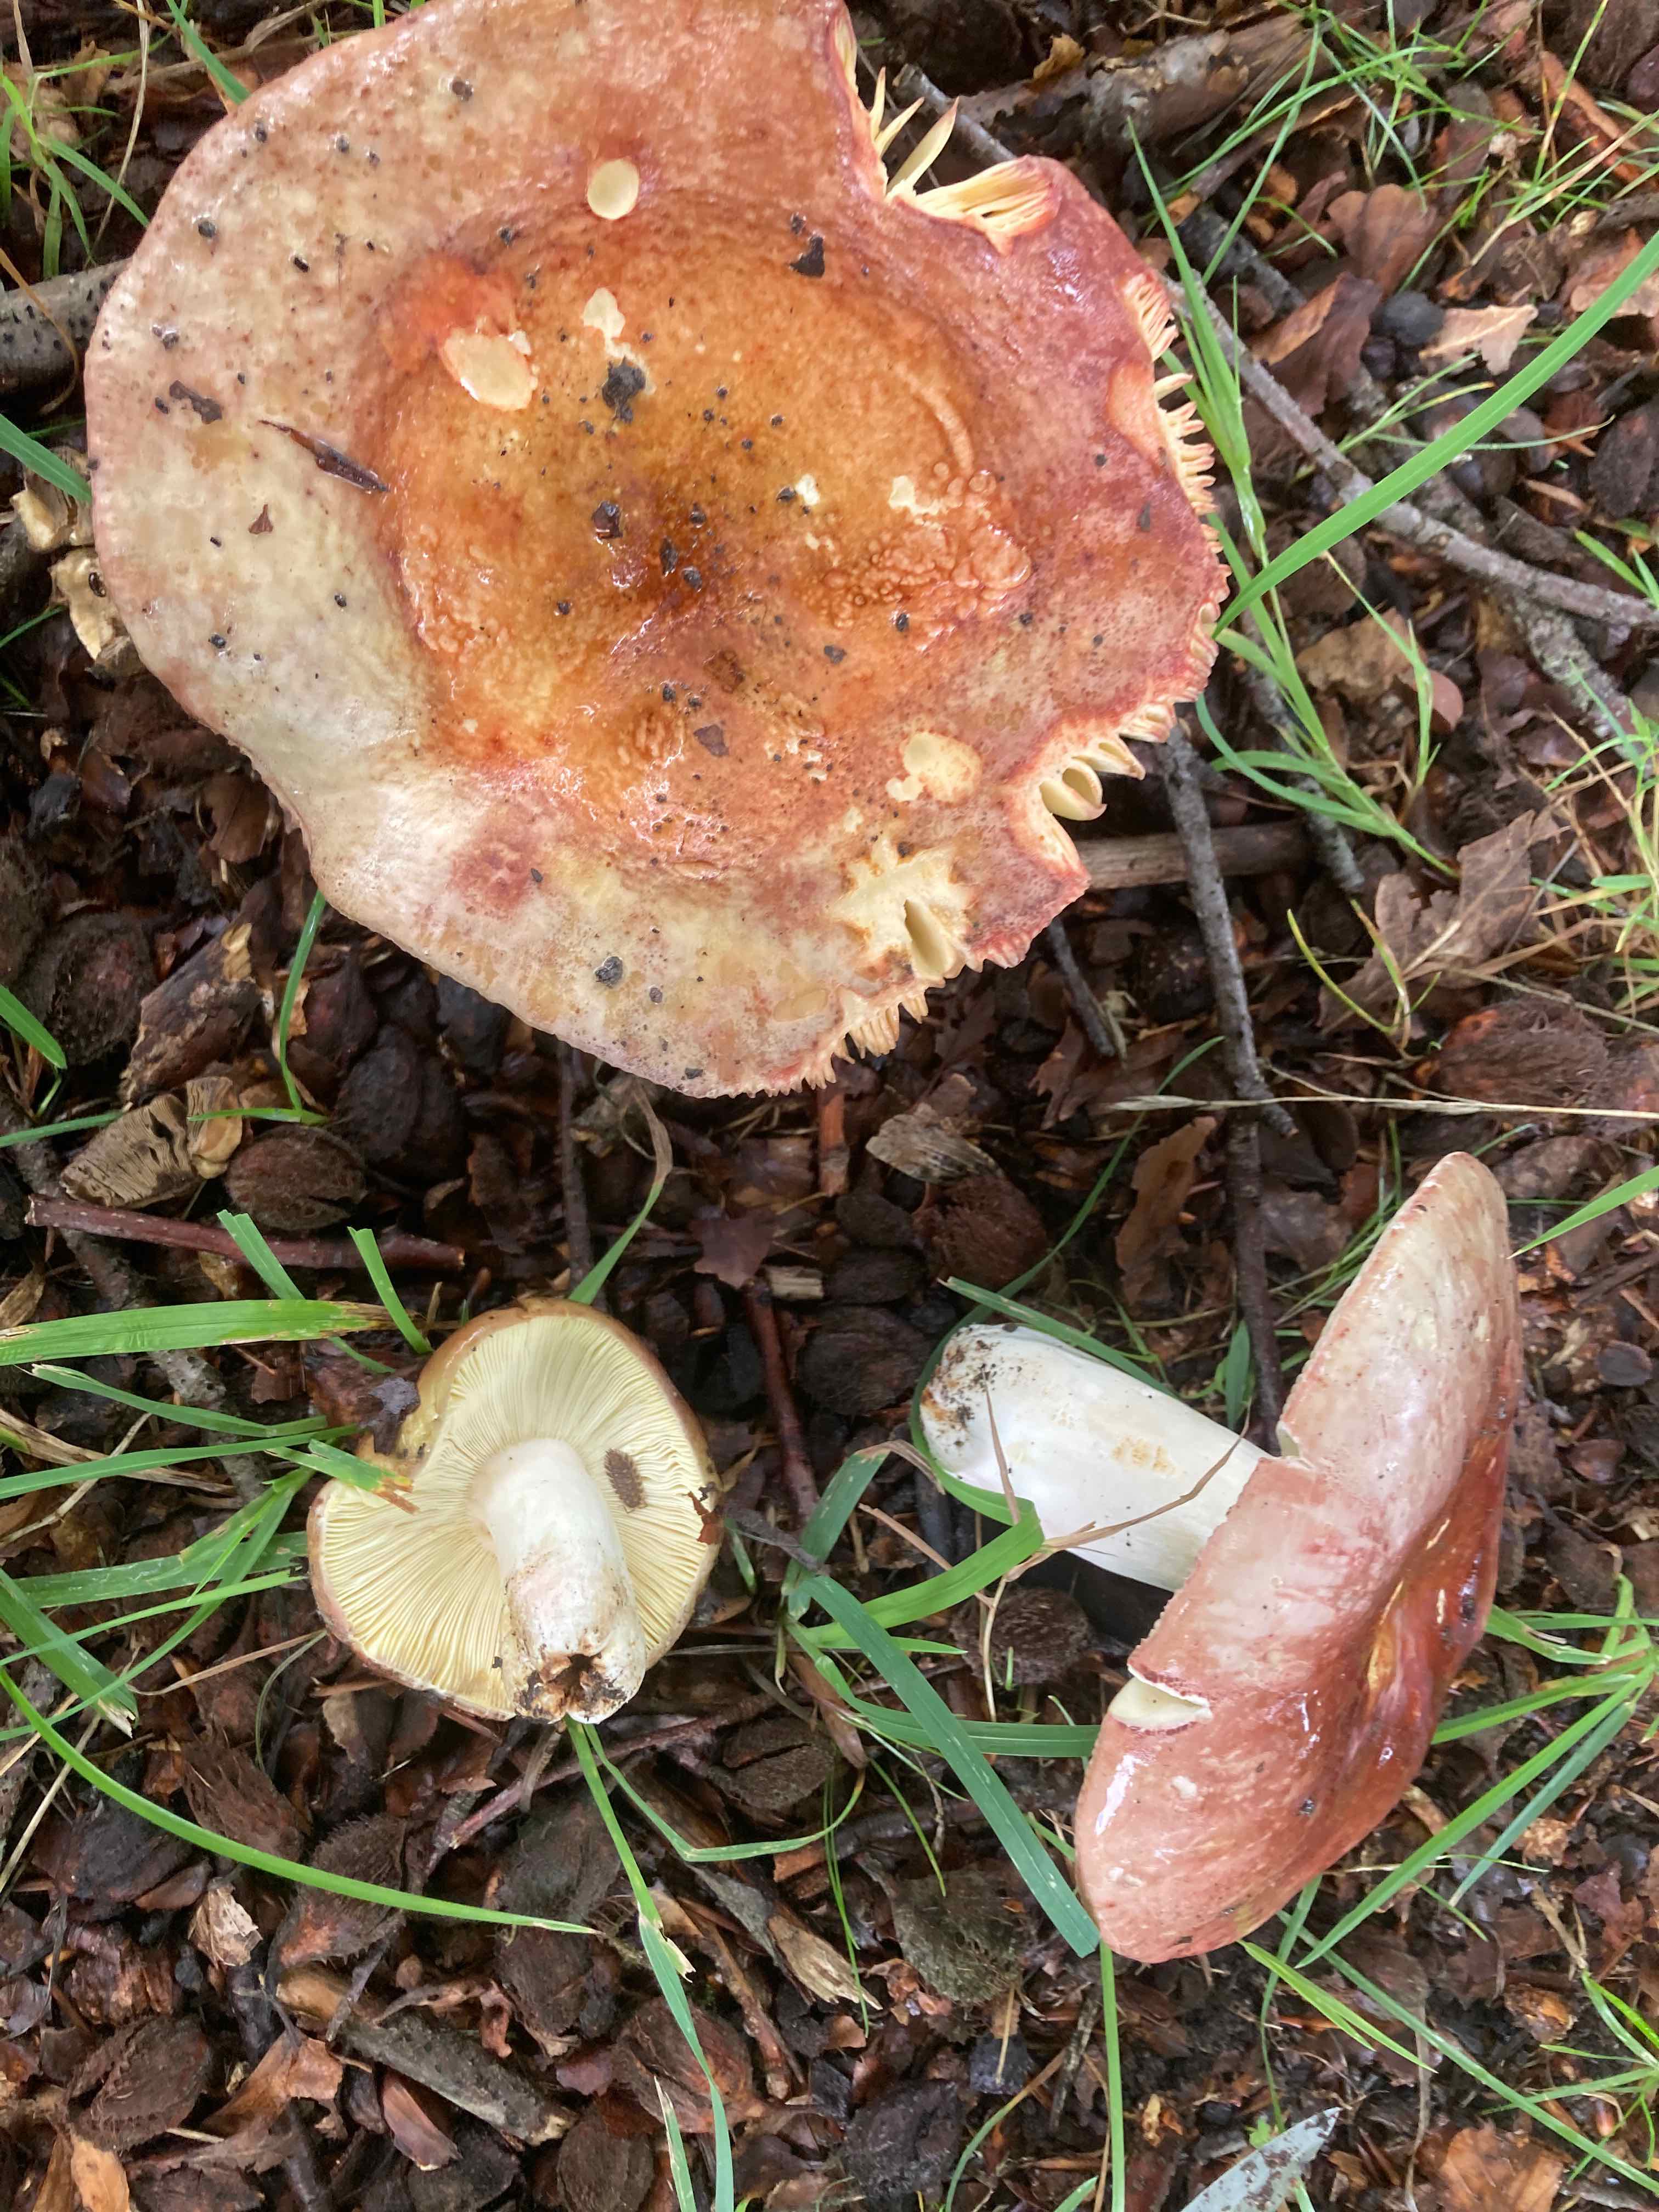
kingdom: Fungi
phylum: Basidiomycota
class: Agaricomycetes
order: Russulales
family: Russulaceae
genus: Russula
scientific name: Russula olivacea
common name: stor skørhat
